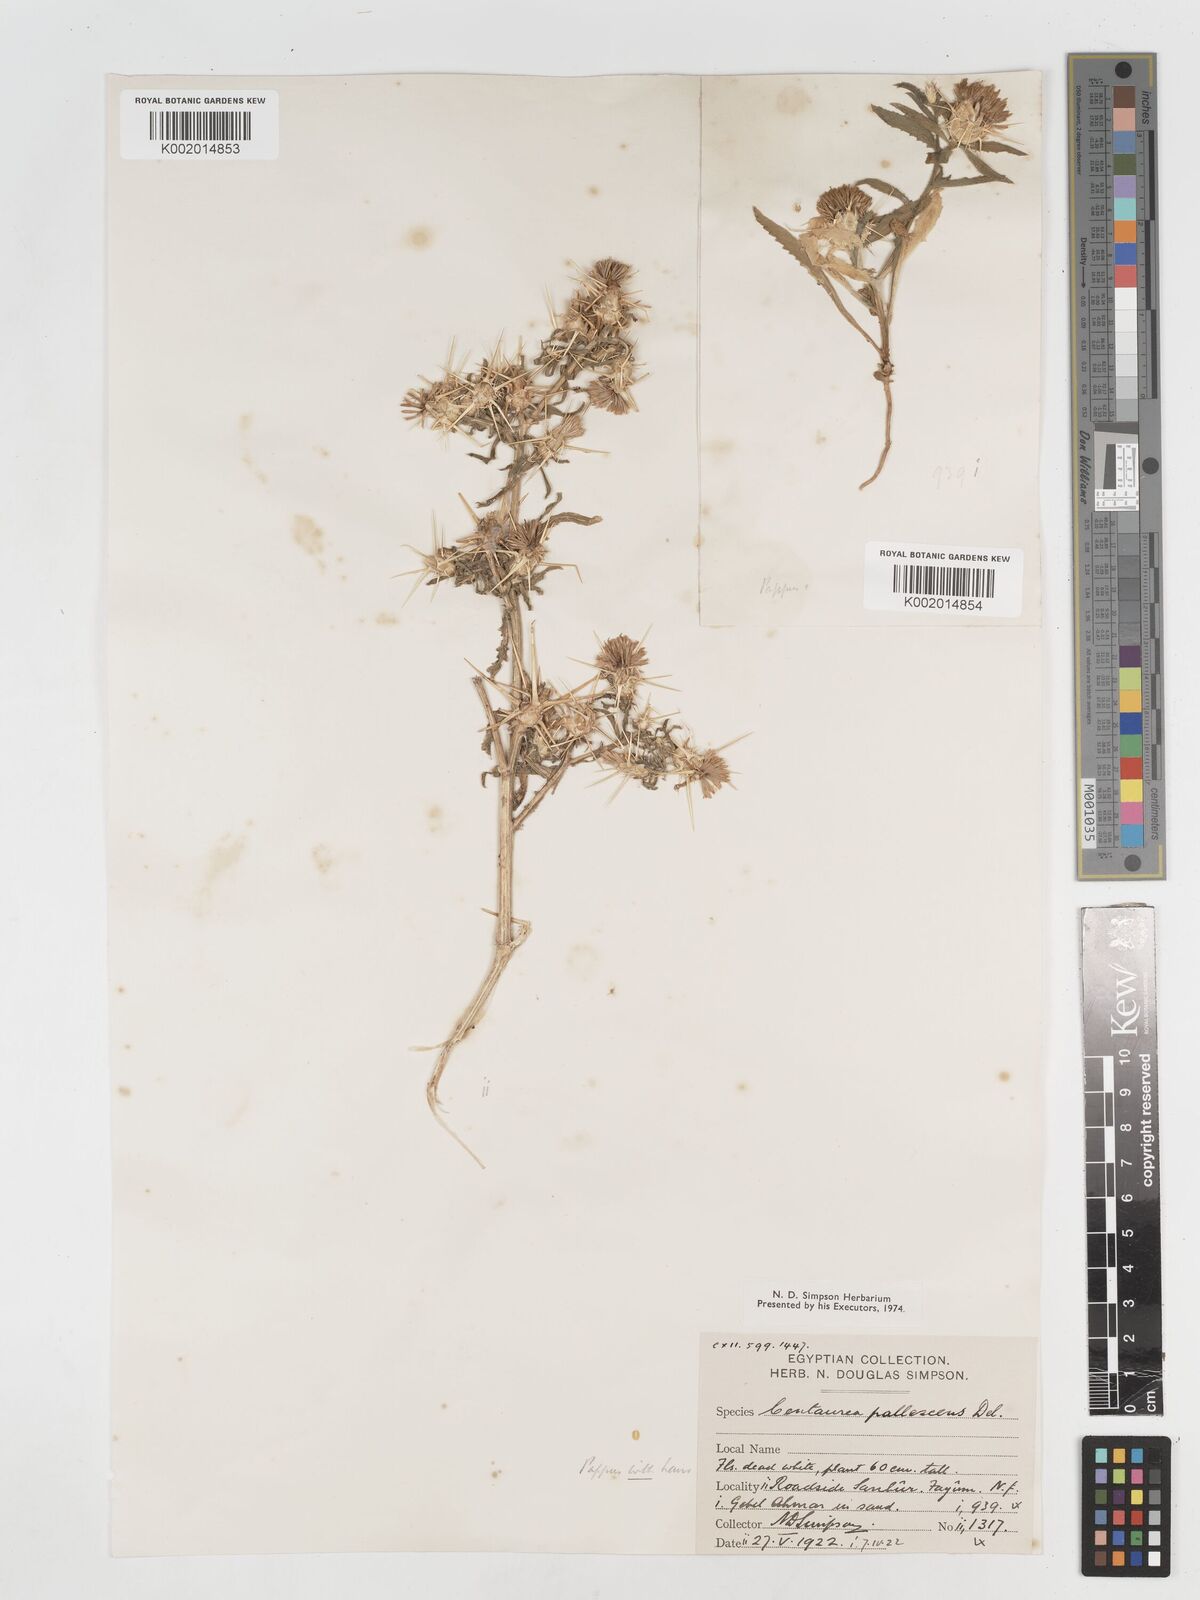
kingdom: Plantae
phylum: Tracheophyta
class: Magnoliopsida
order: Asterales
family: Asteraceae
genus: Centaurea
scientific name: Centaurea pallescens
